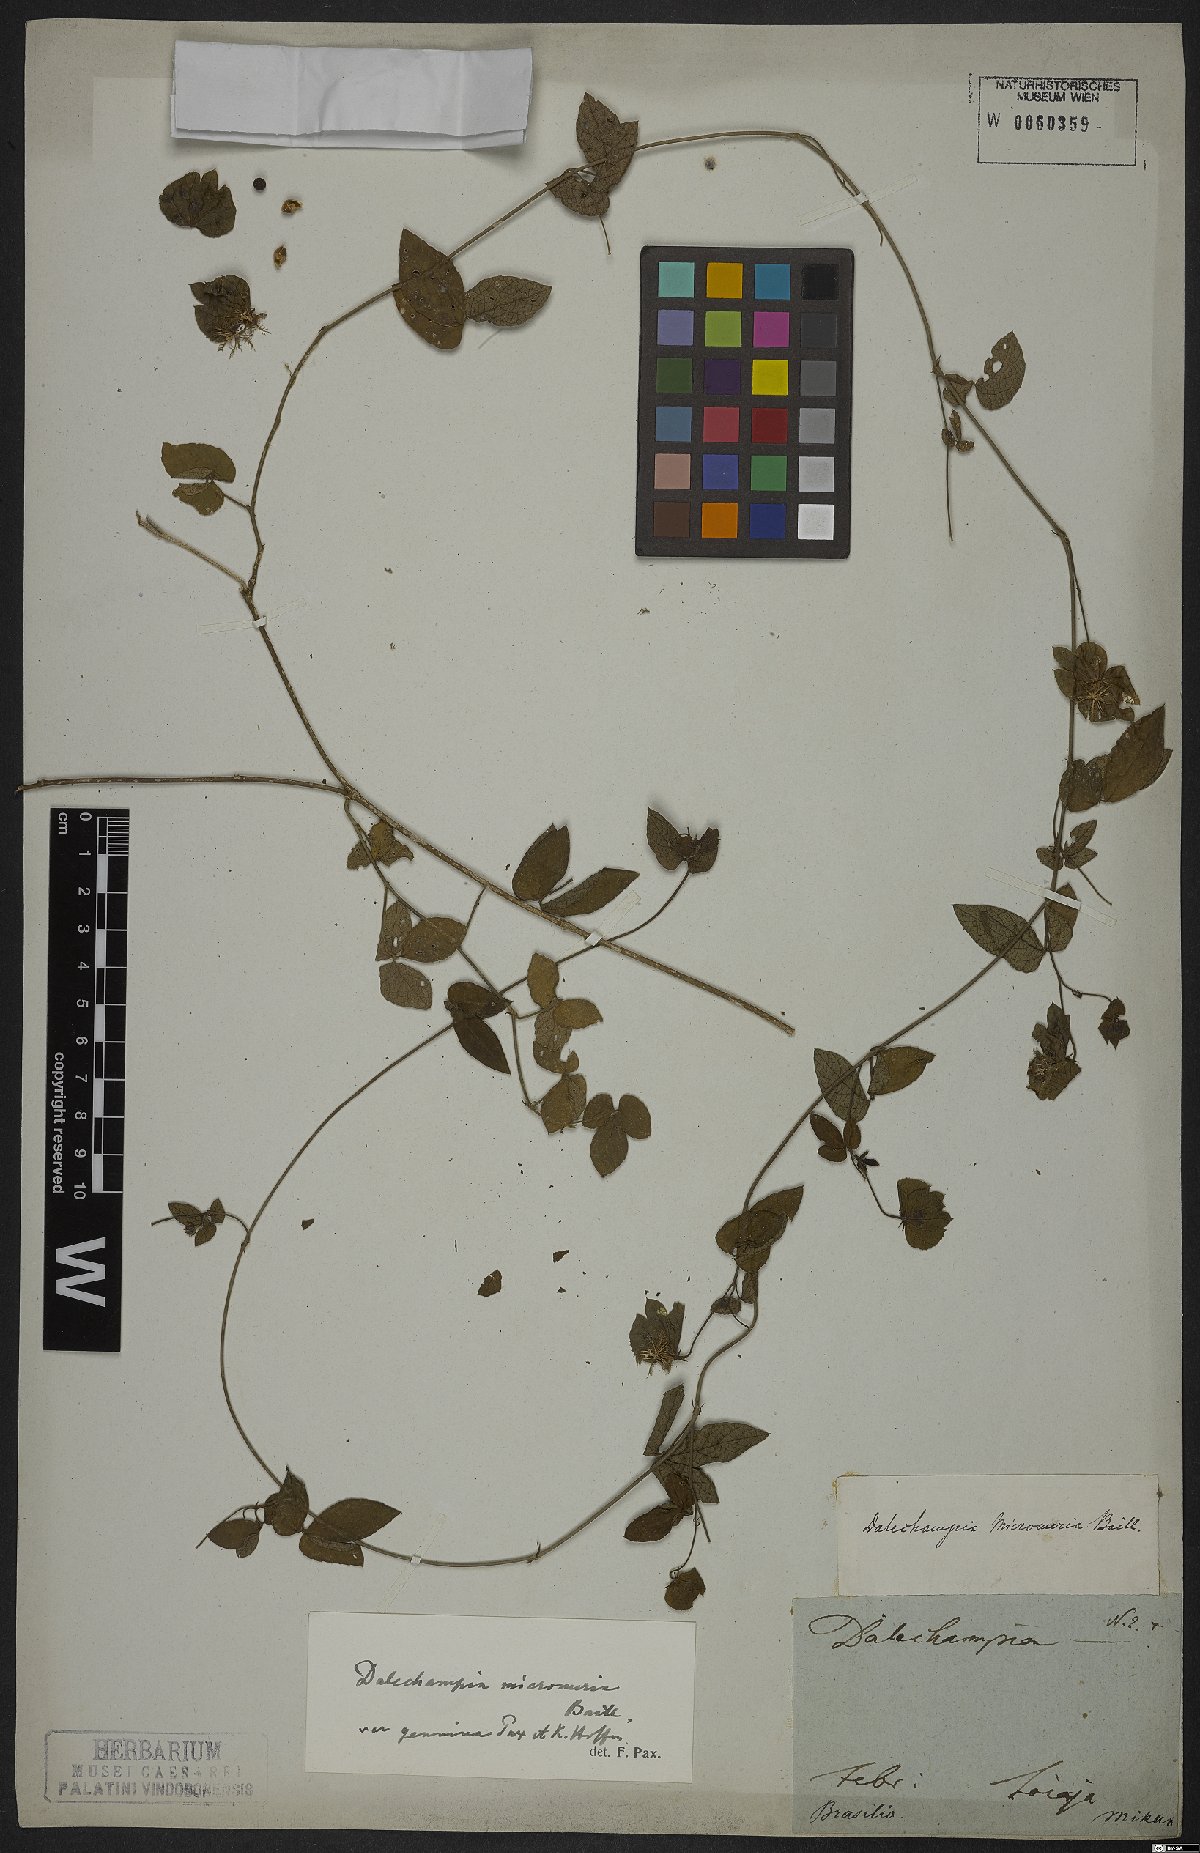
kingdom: Plantae
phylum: Tracheophyta
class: Magnoliopsida
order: Malpighiales
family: Euphorbiaceae
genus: Dalechampia
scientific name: Dalechampia micromeria
